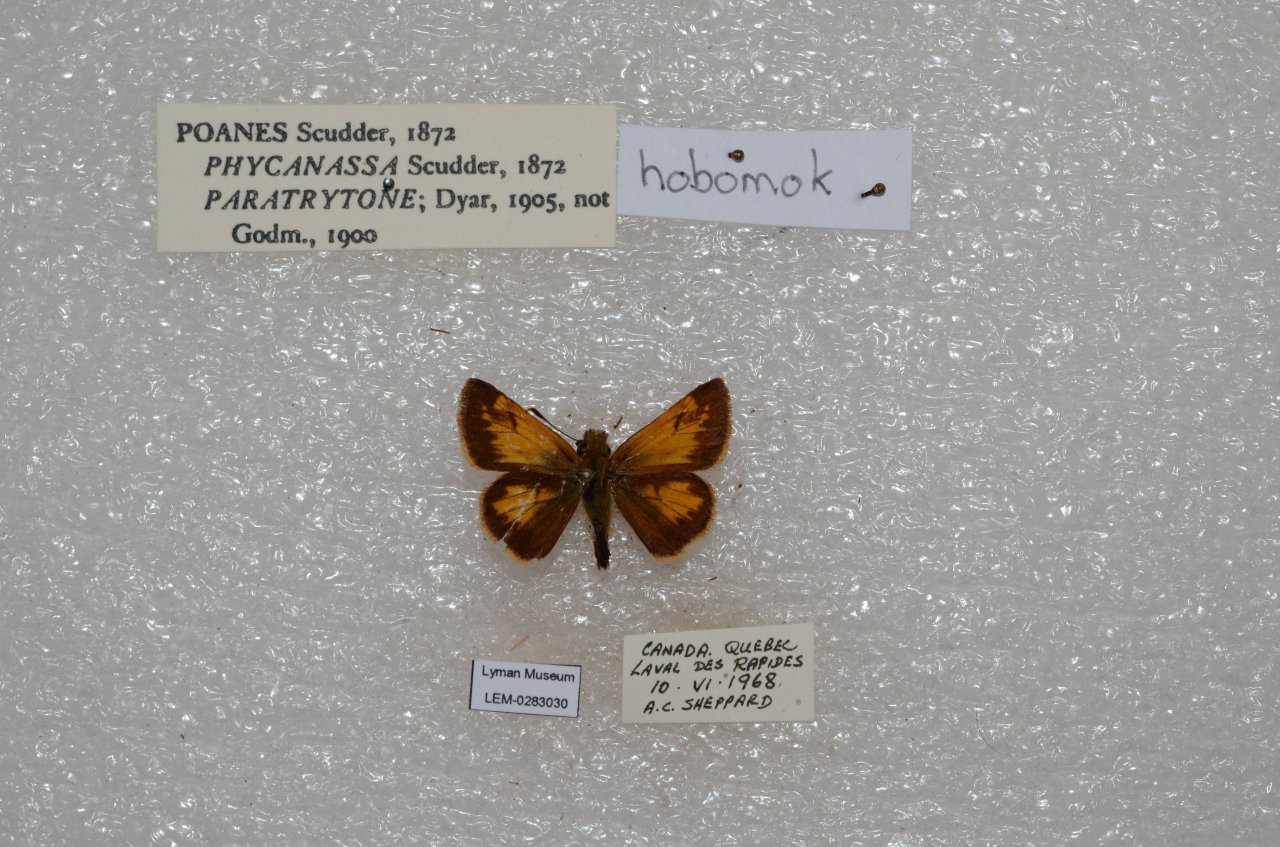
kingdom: Animalia
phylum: Arthropoda
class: Insecta
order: Lepidoptera
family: Hesperiidae
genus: Lon
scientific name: Lon hobomok
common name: Hobomok Skipper
